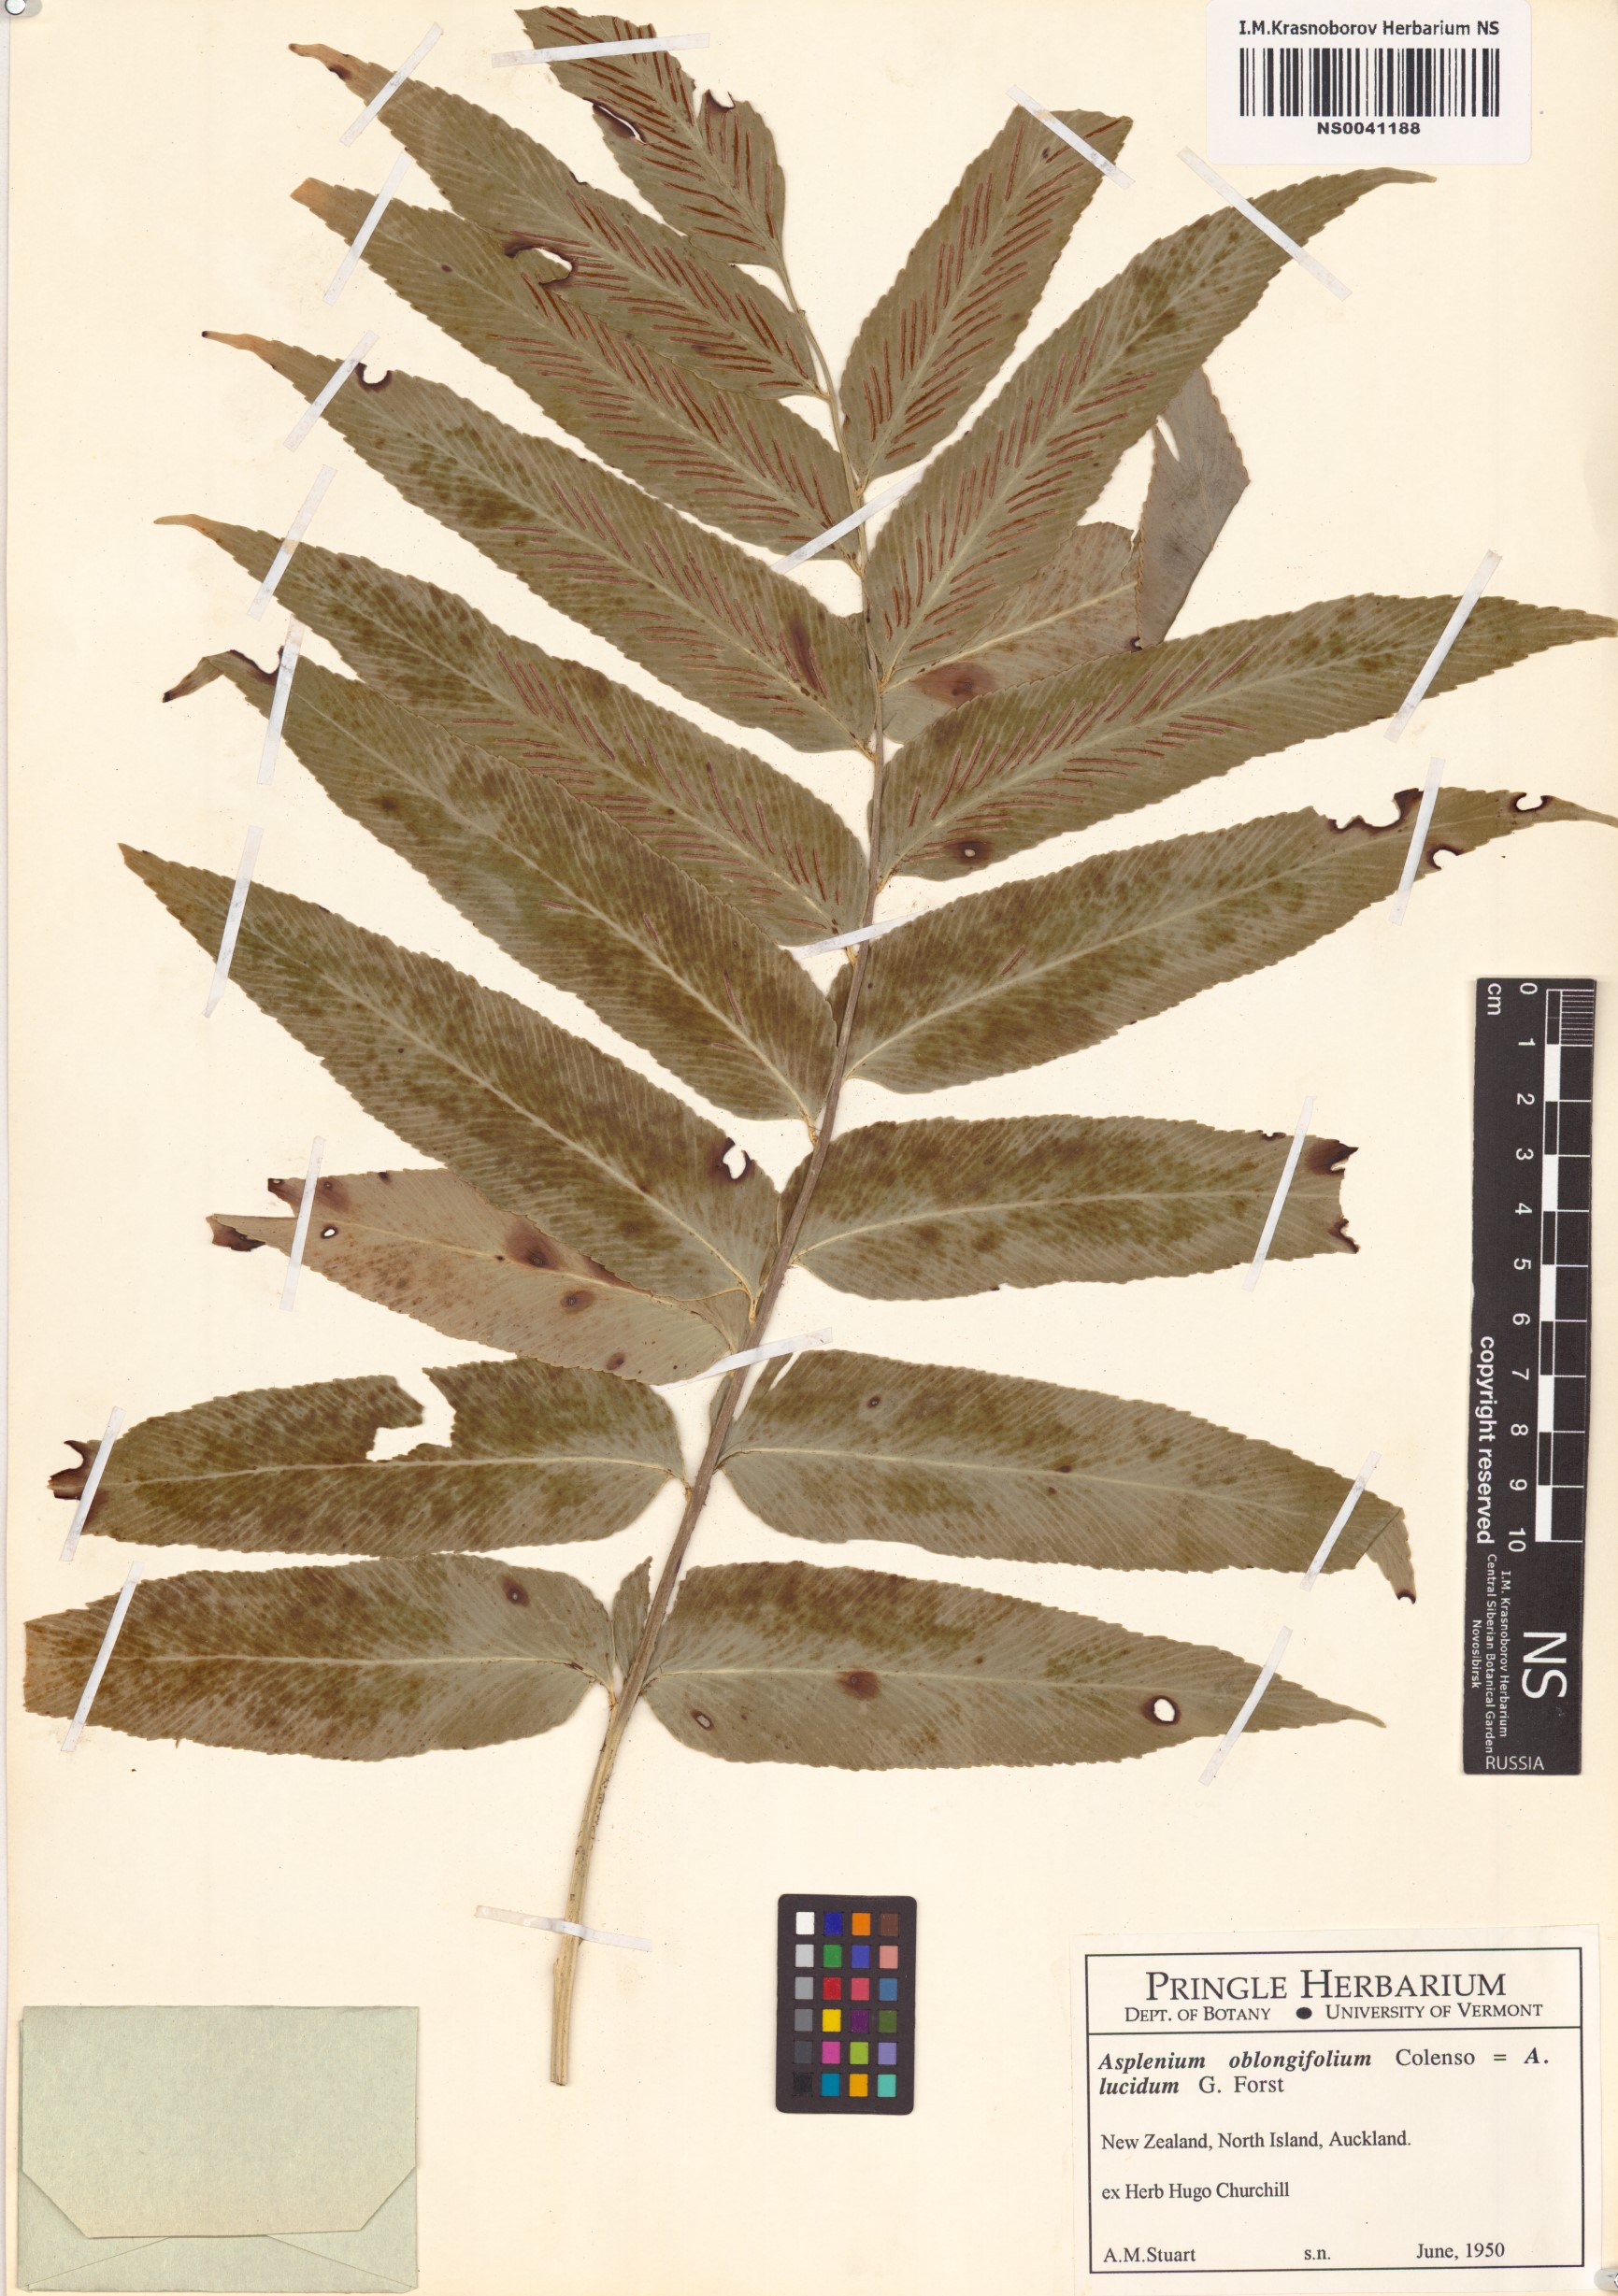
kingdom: Plantae
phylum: Tracheophyta
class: Polypodiopsida
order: Polypodiales
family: Aspleniaceae
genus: Asplenium
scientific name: Asplenium oblongifolium
